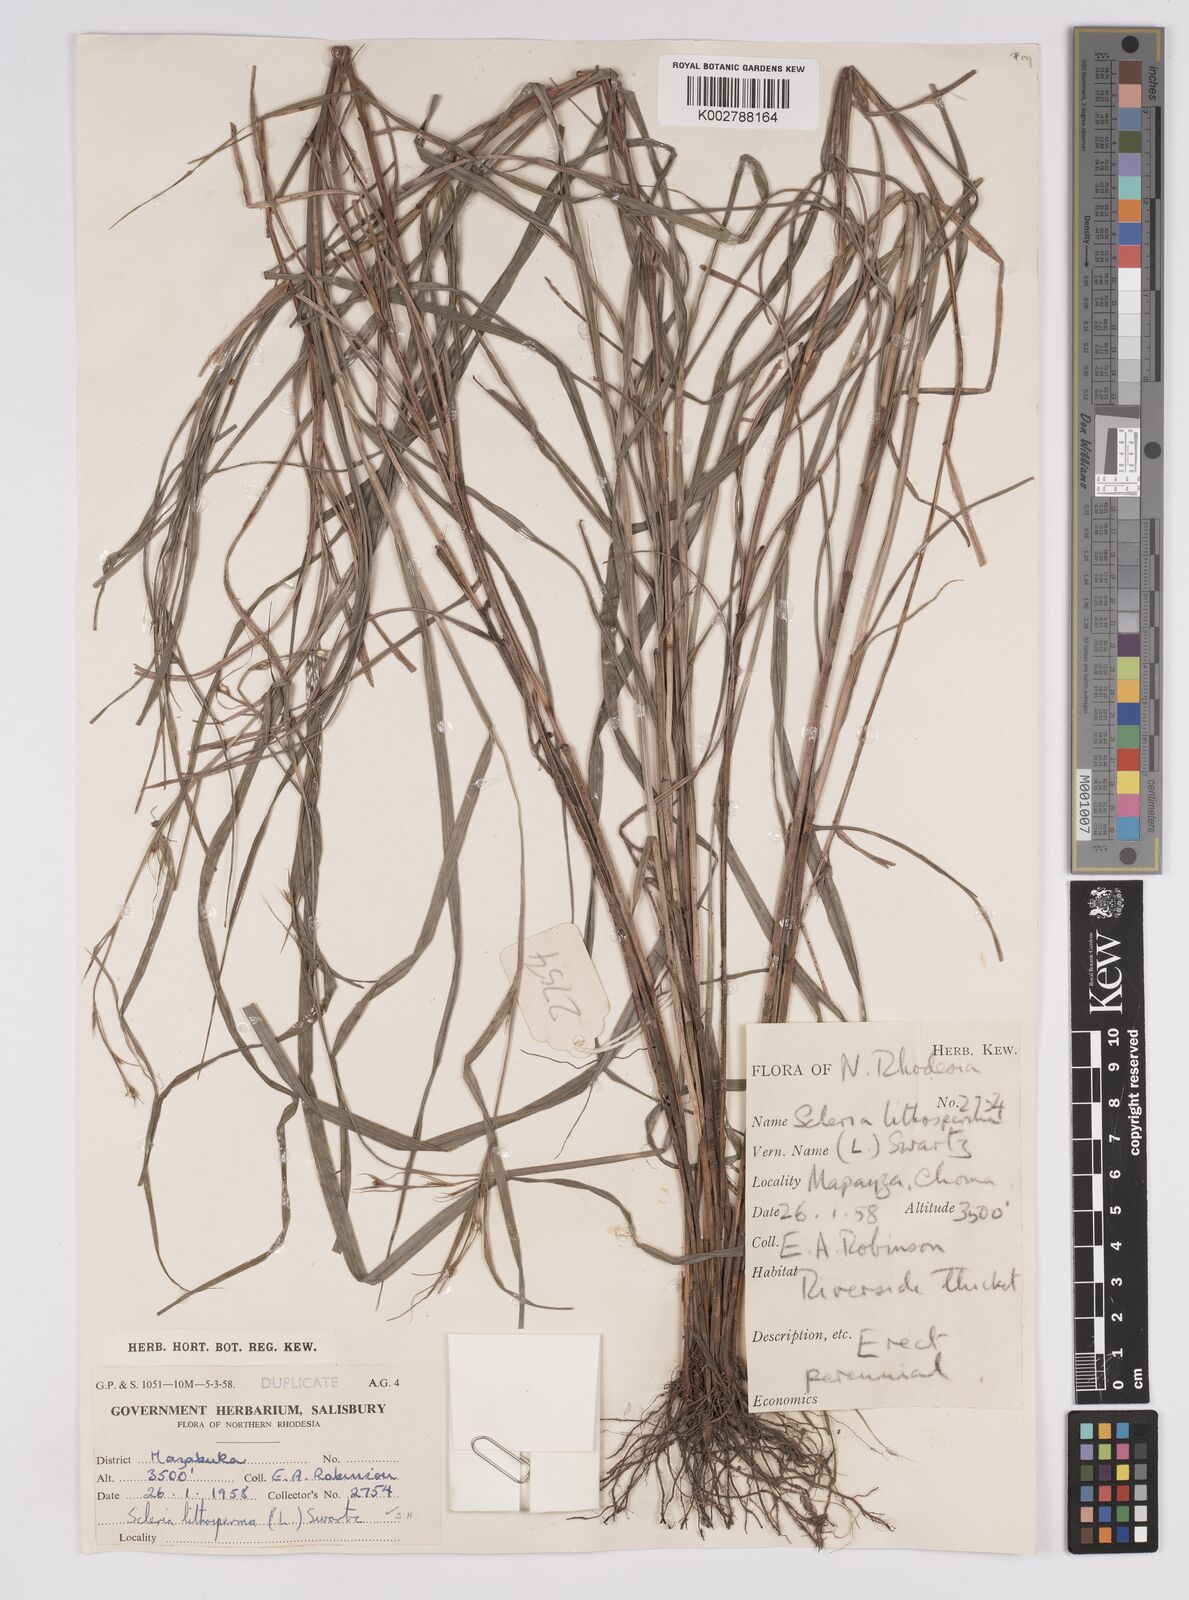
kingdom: Plantae
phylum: Tracheophyta
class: Liliopsida
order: Poales
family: Cyperaceae
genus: Scleria
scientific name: Scleria lithosperma
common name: Florida keys nut-rush
